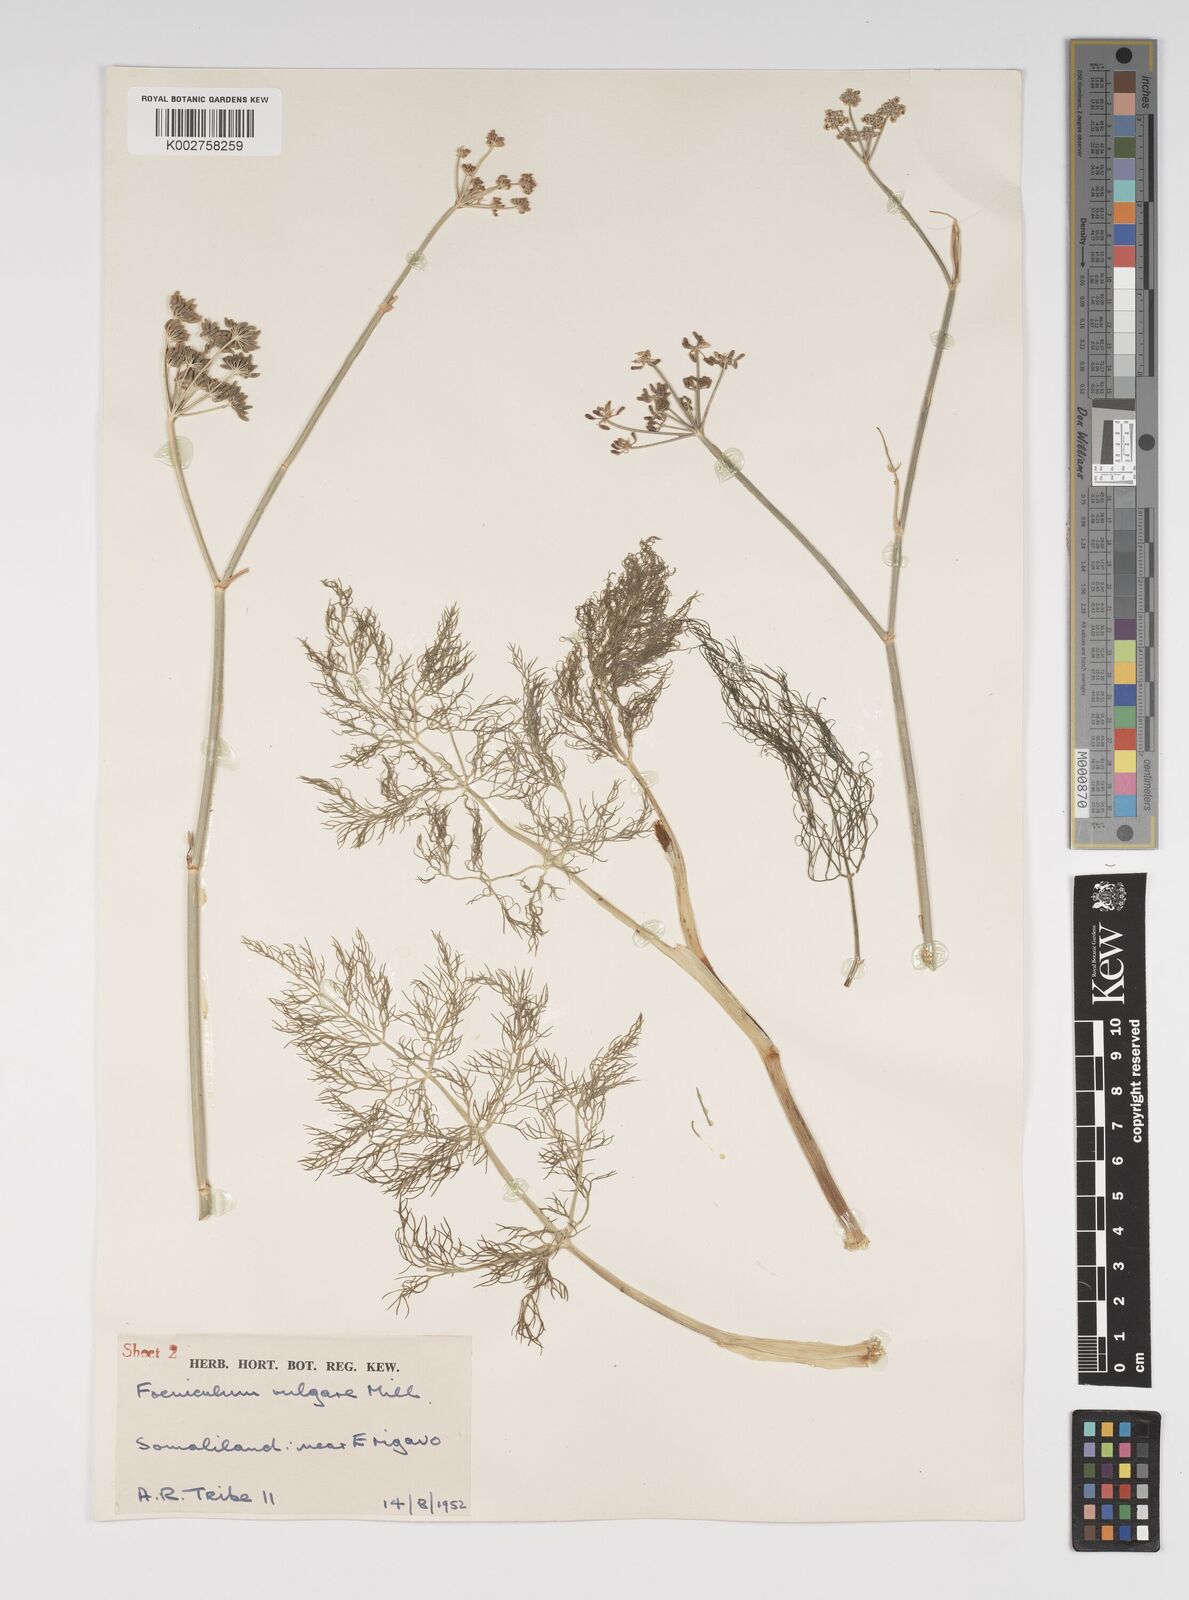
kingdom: Plantae
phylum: Tracheophyta
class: Magnoliopsida
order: Apiales
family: Apiaceae
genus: Foeniculum
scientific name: Foeniculum vulgare
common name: Fennel
